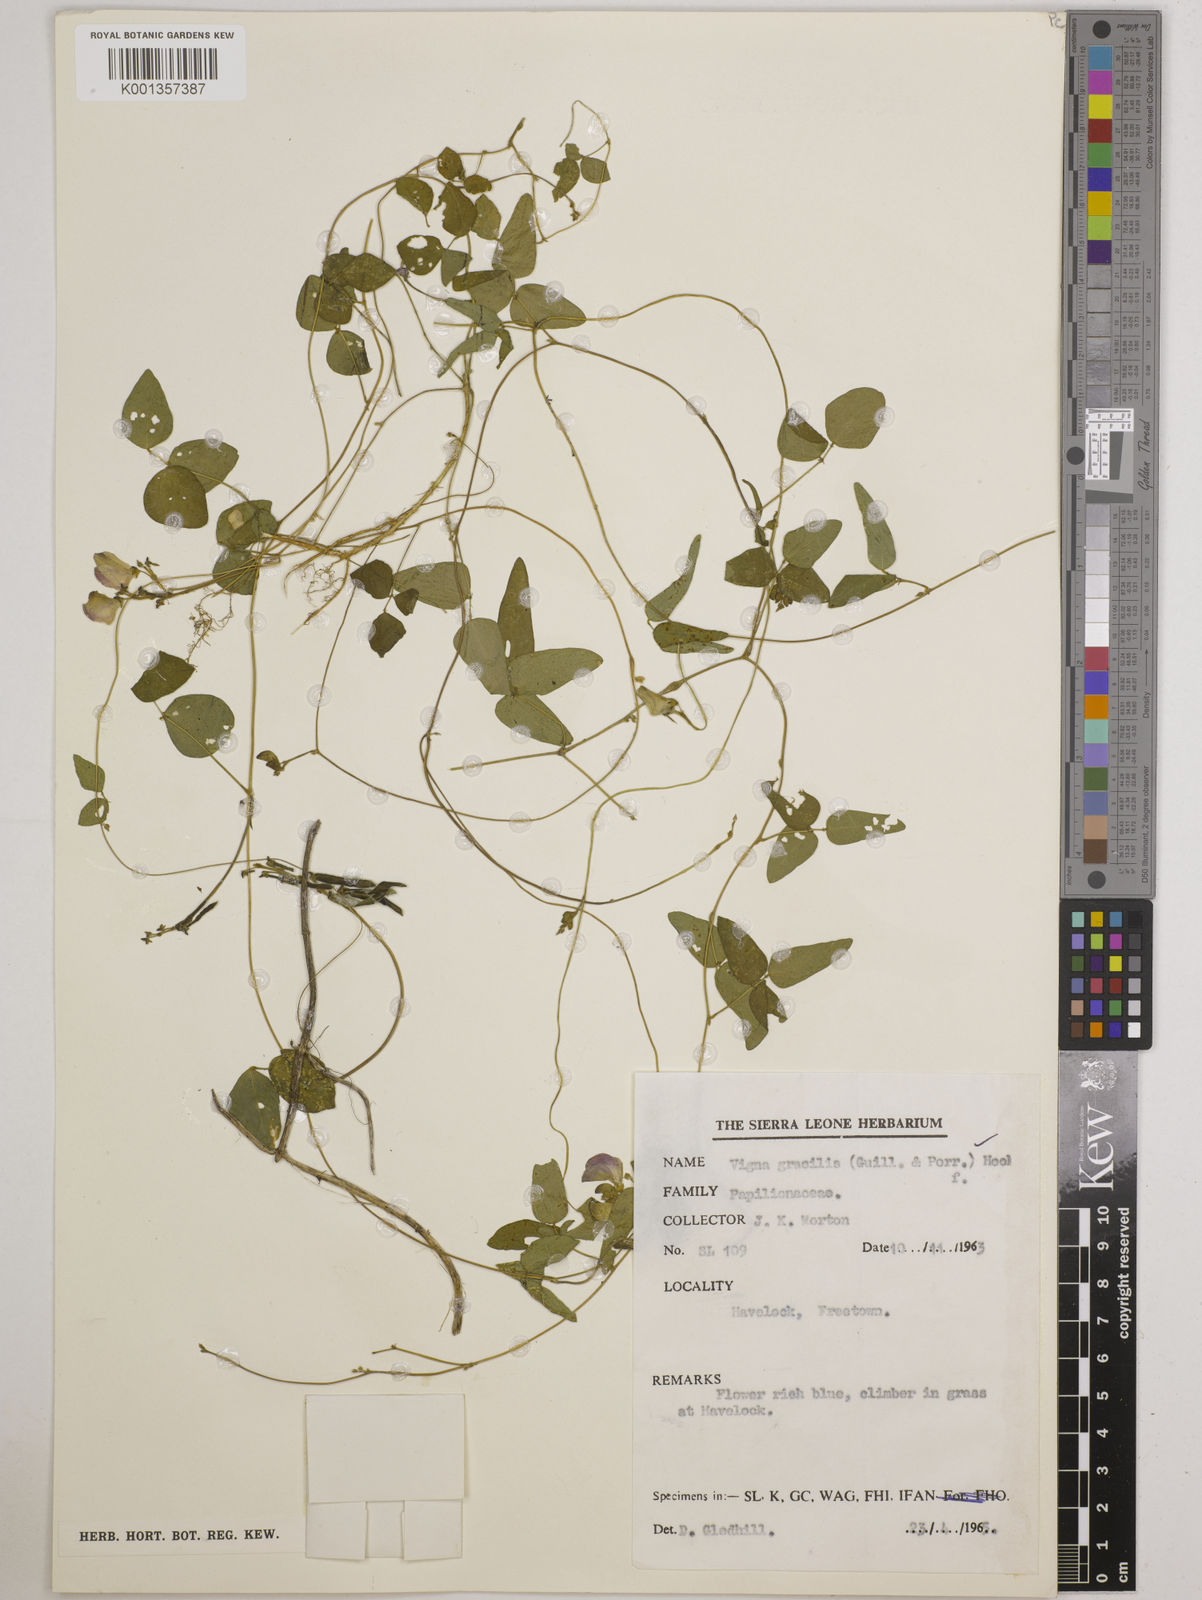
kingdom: Plantae
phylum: Tracheophyta
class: Magnoliopsida
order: Fabales
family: Fabaceae
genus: Vigna
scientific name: Vigna gracilis
